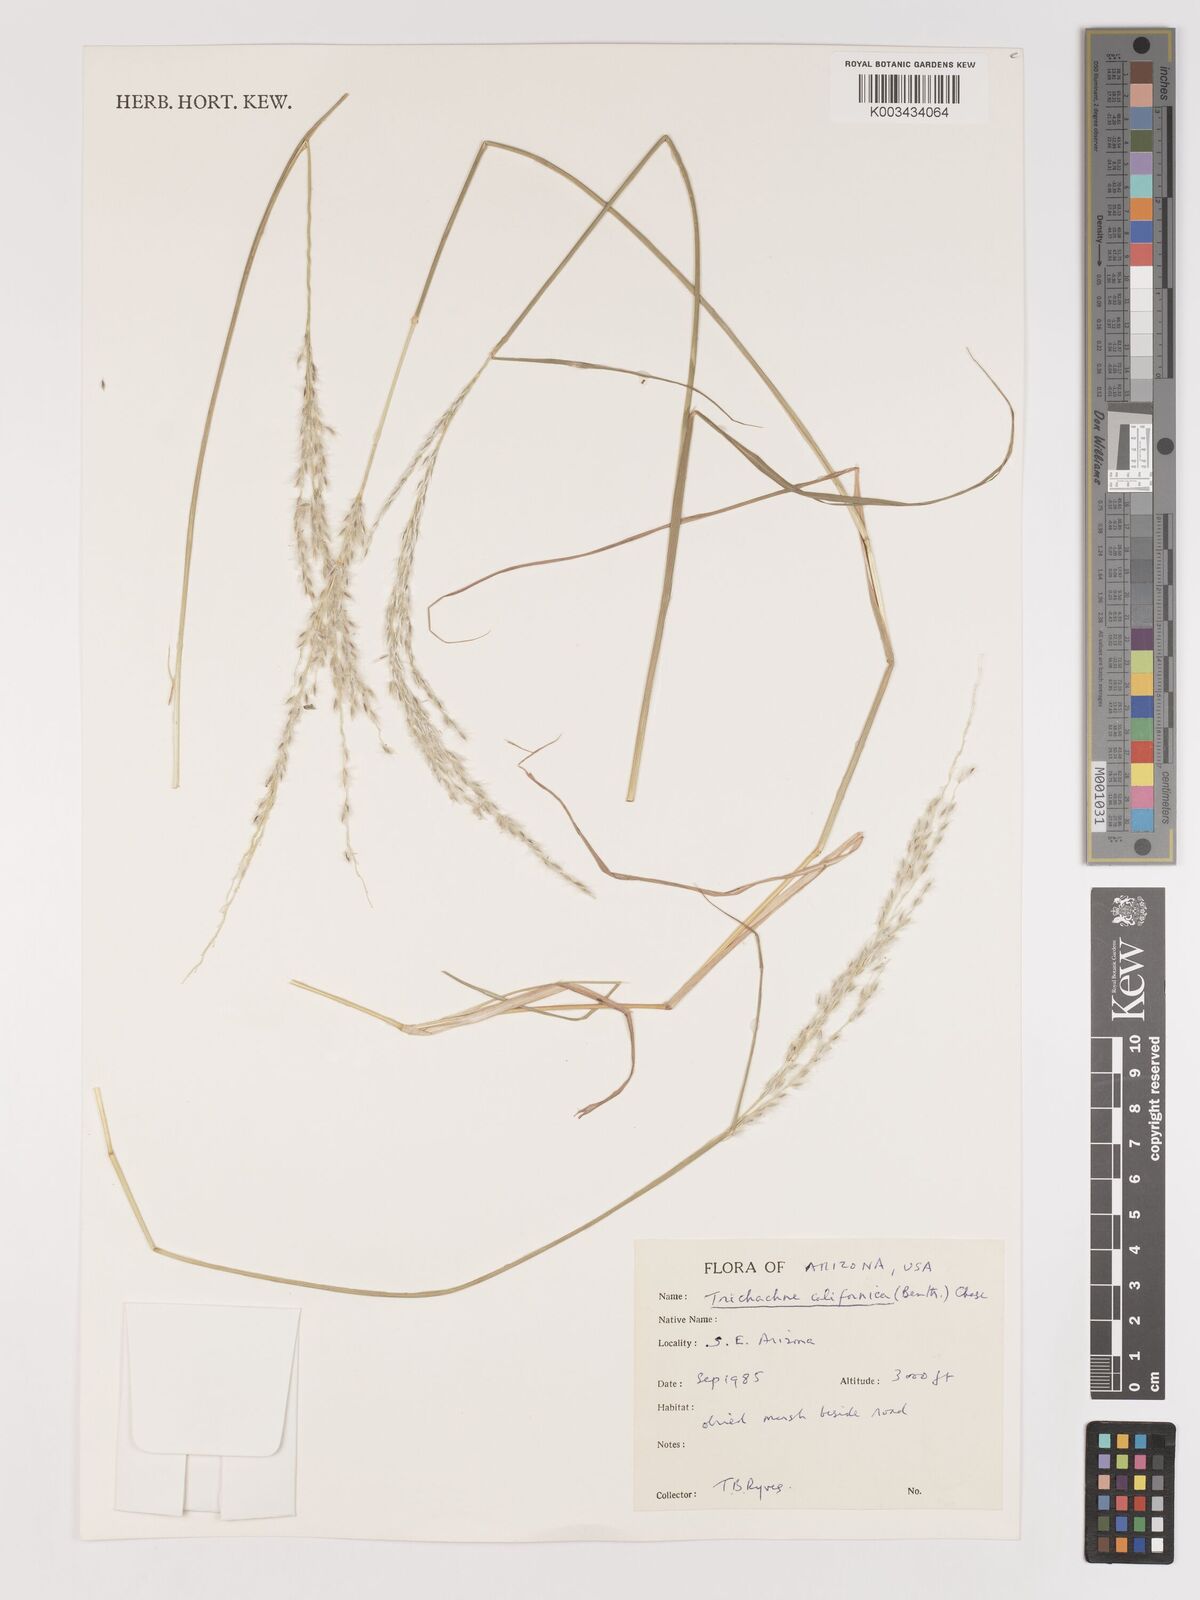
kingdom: Plantae
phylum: Tracheophyta
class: Liliopsida
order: Poales
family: Poaceae
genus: Digitaria
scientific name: Digitaria californica
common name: Arizona cottontop
